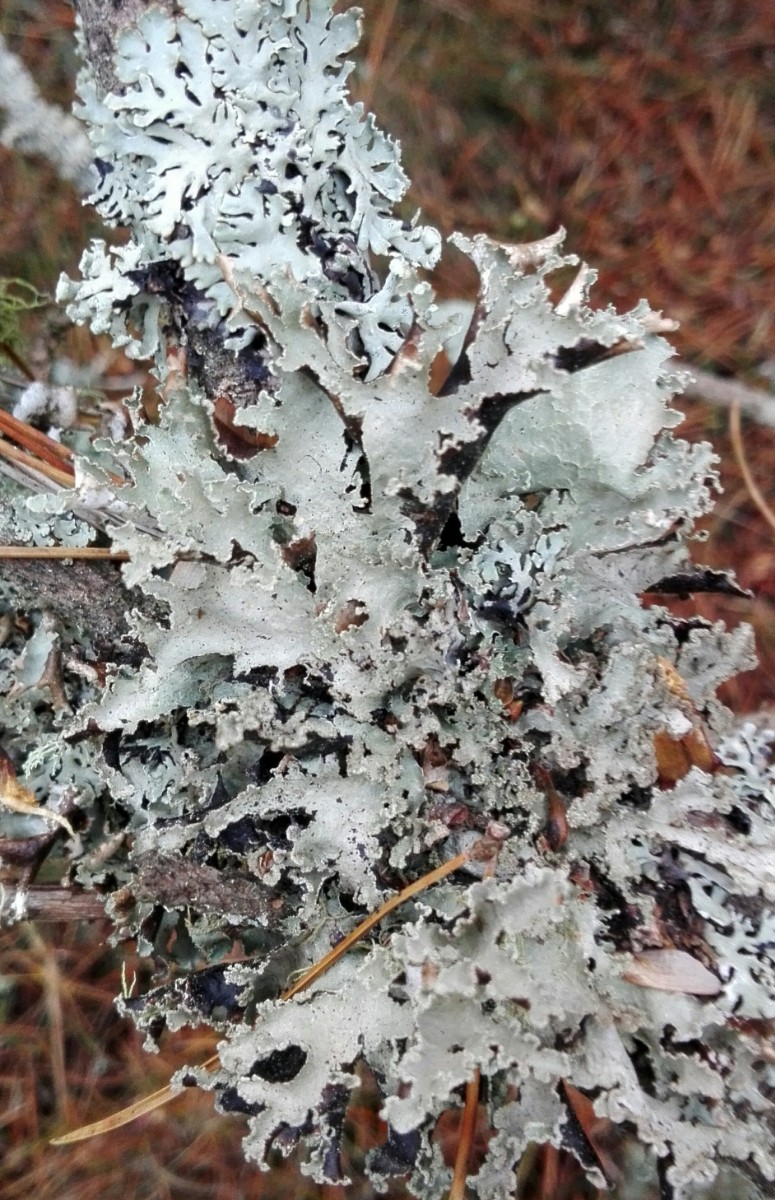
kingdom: Fungi
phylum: Ascomycota
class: Lecanoromycetes
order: Lecanorales
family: Parmeliaceae
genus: Platismatia
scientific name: Platismatia glauca
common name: blågrå papirlav
